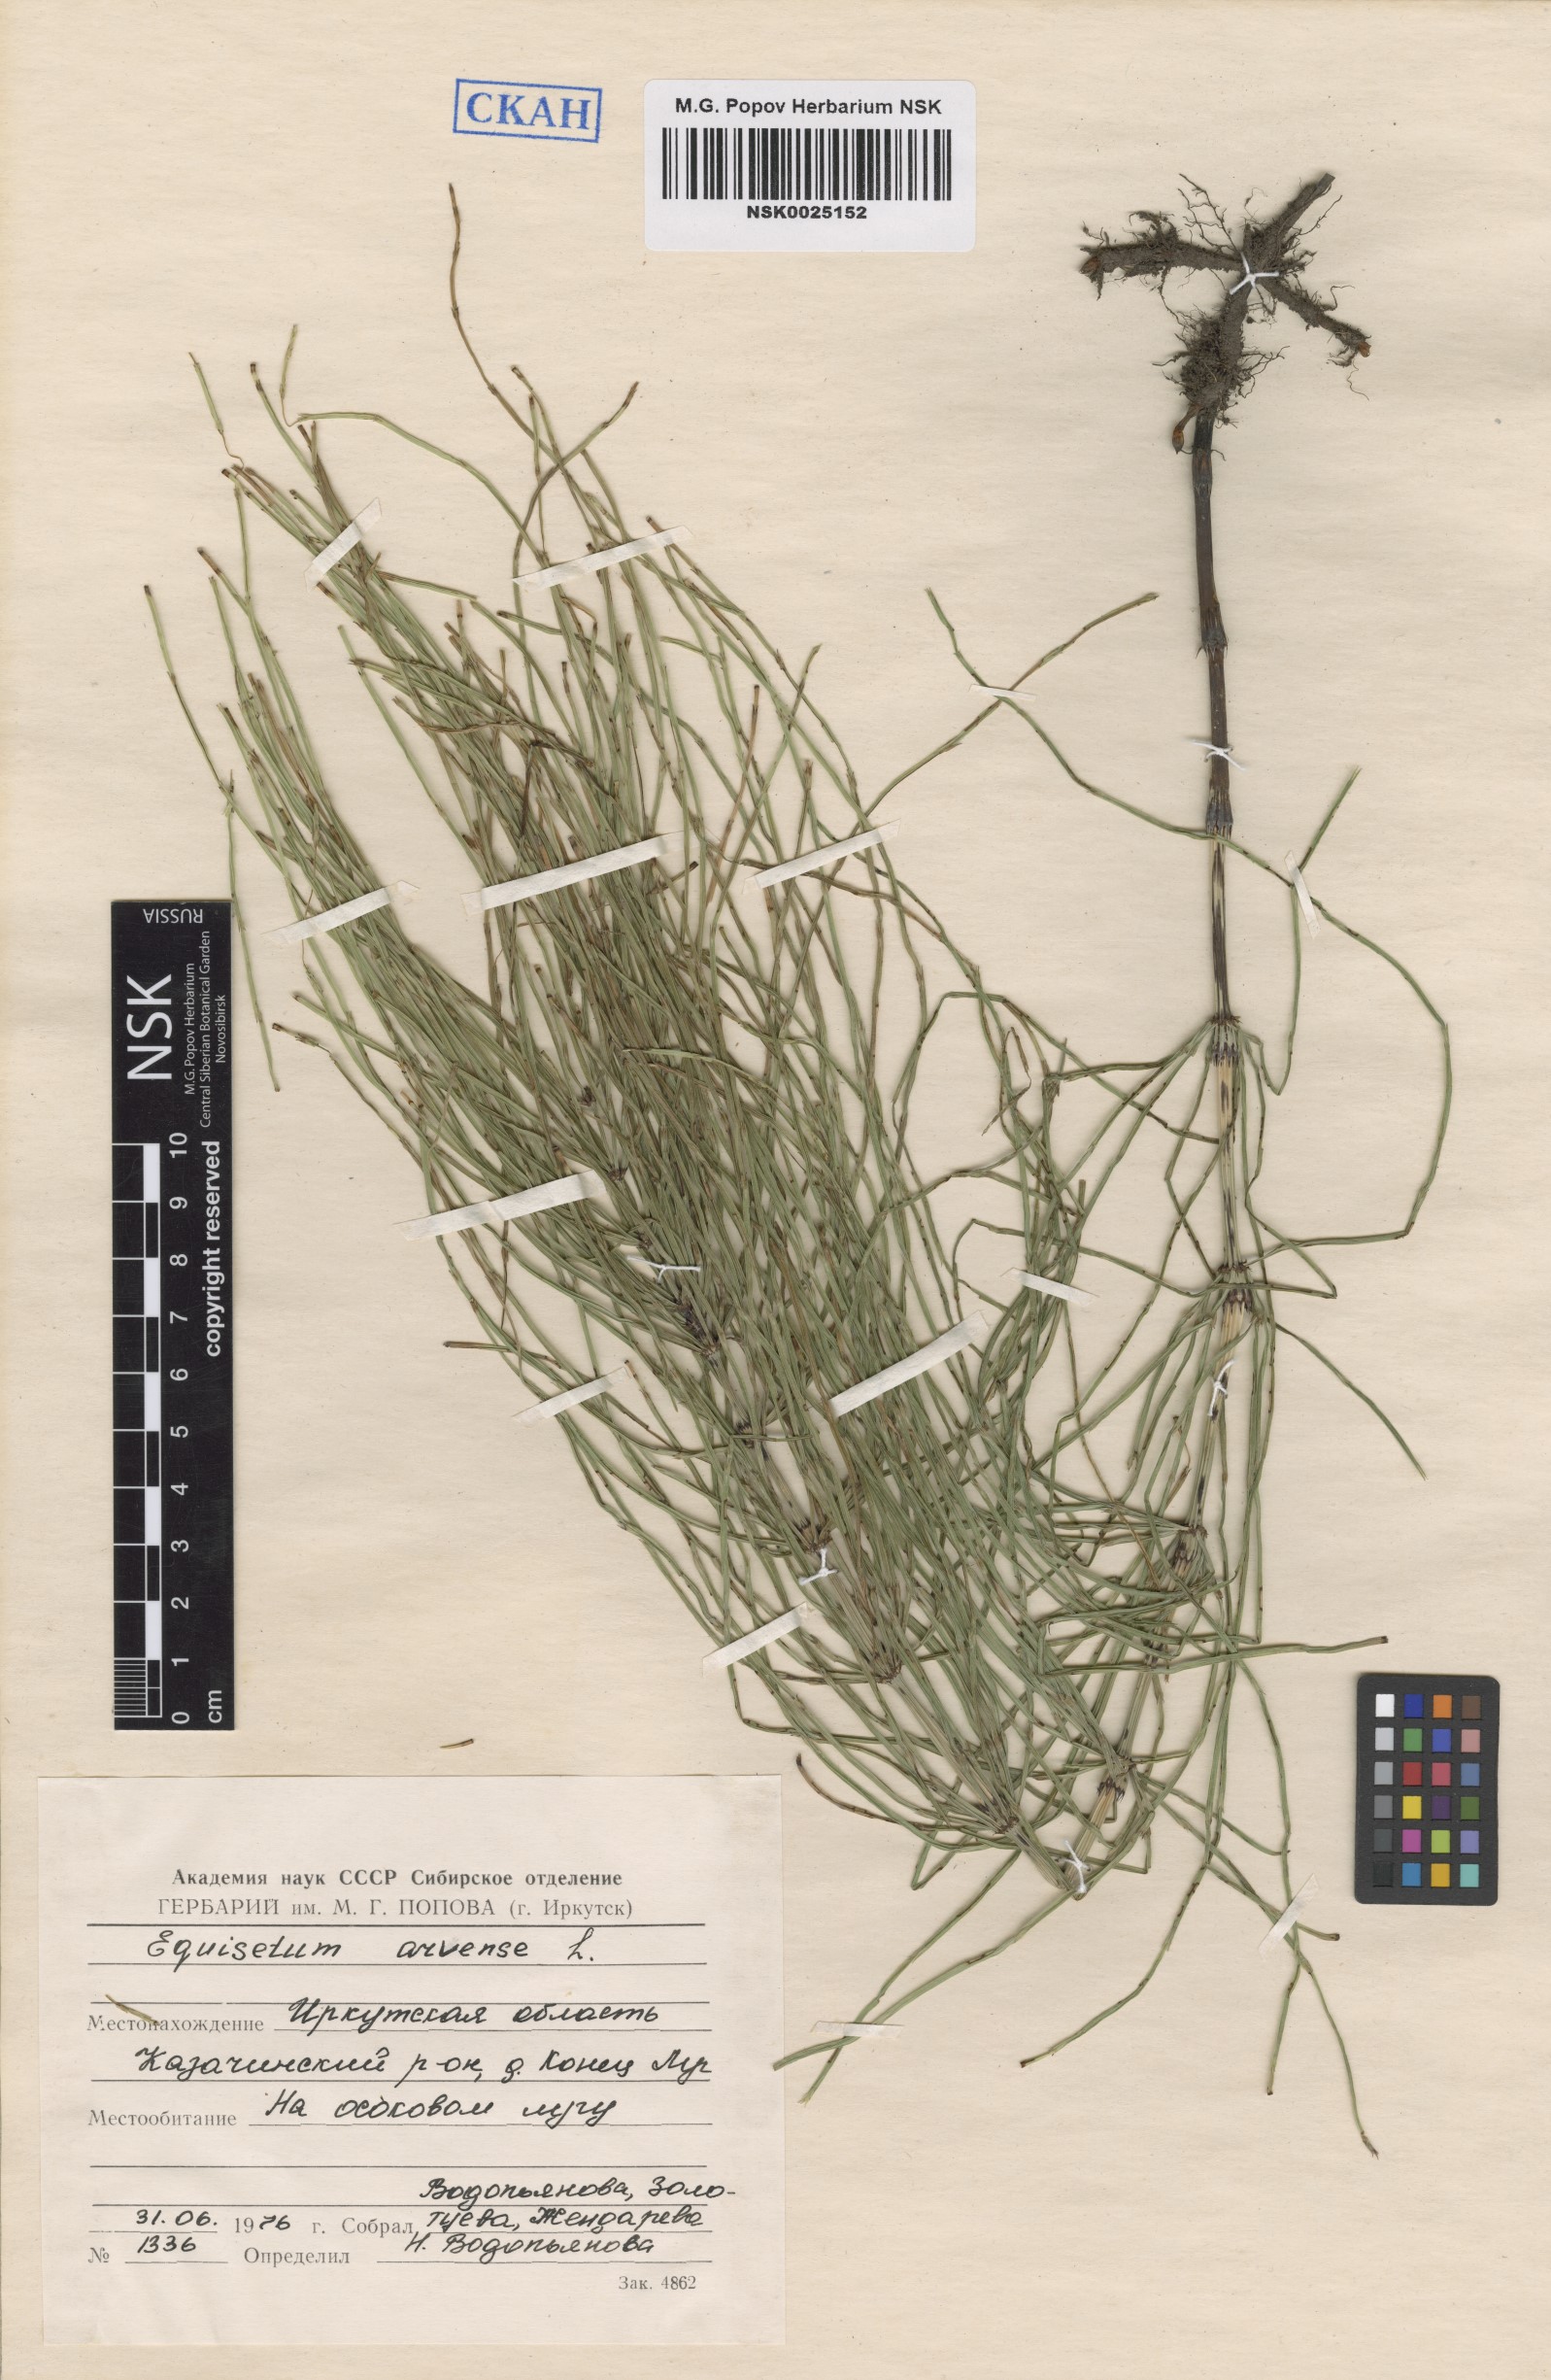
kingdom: Plantae
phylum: Tracheophyta
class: Polypodiopsida
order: Equisetales
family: Equisetaceae
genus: Equisetum
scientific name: Equisetum arvense
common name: Field horsetail
